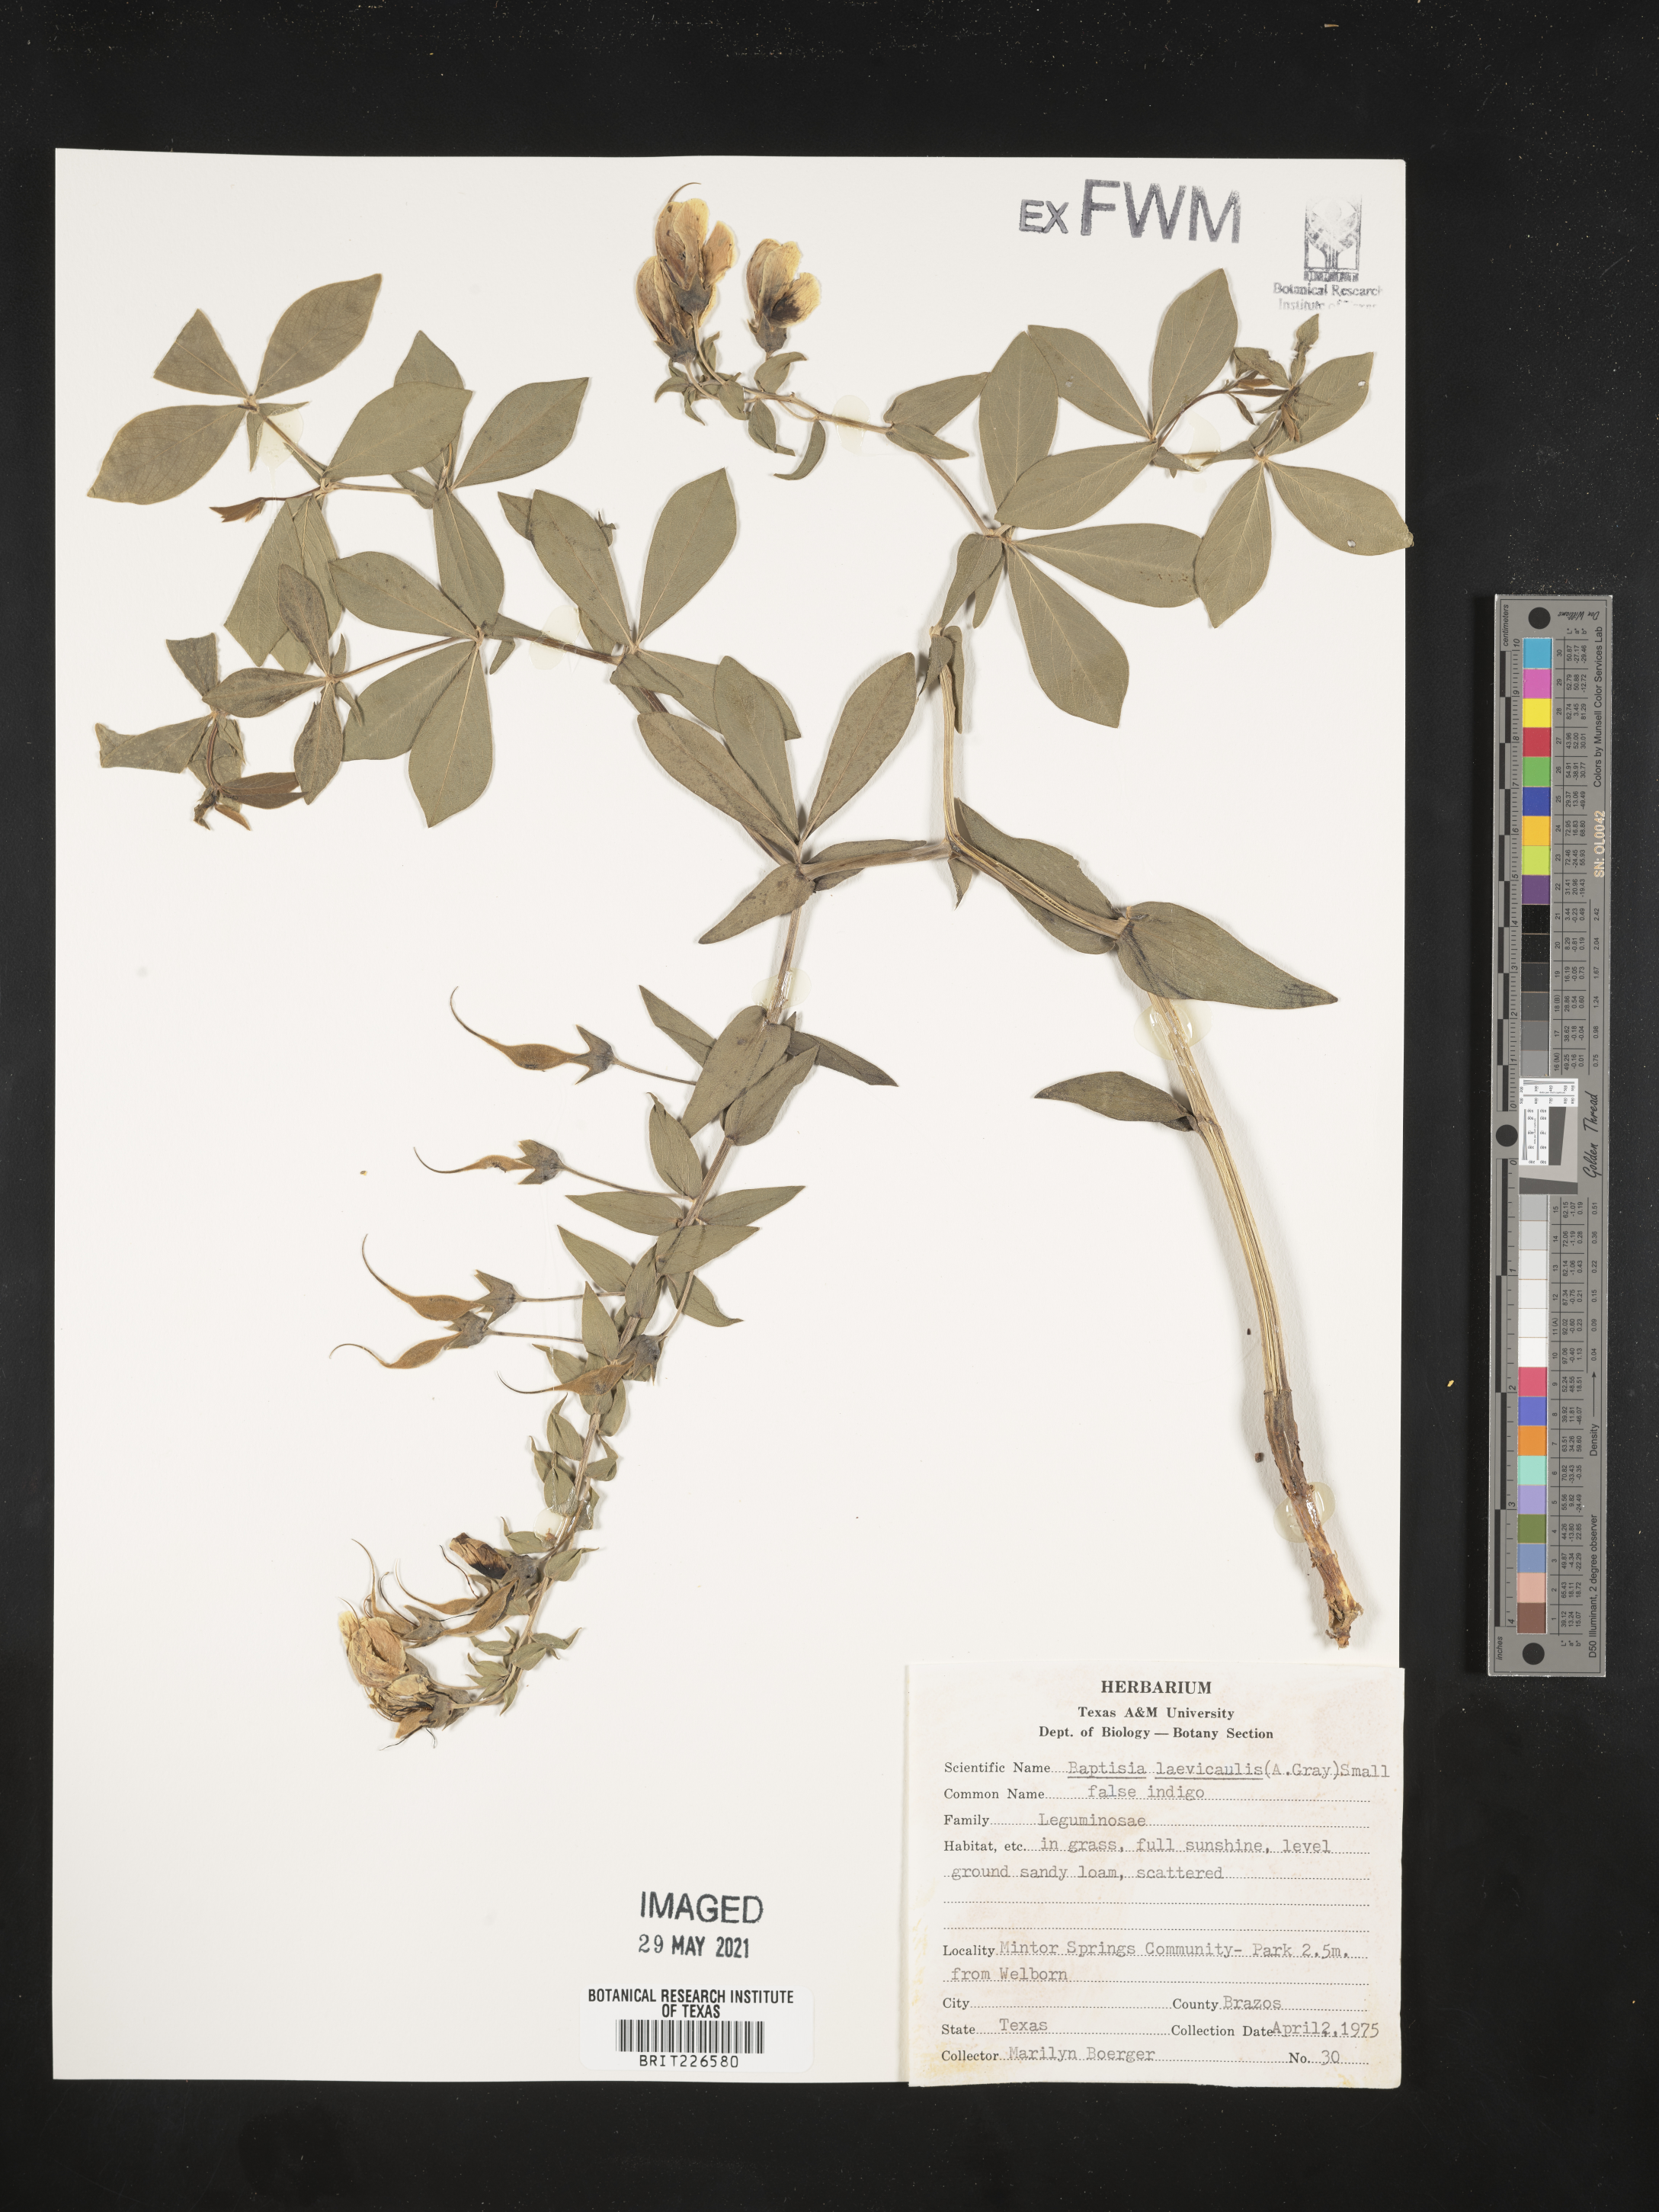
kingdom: Plantae
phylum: Tracheophyta
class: Magnoliopsida
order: Fabales
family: Fabaceae
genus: Baptisia
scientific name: Baptisia bracteata
